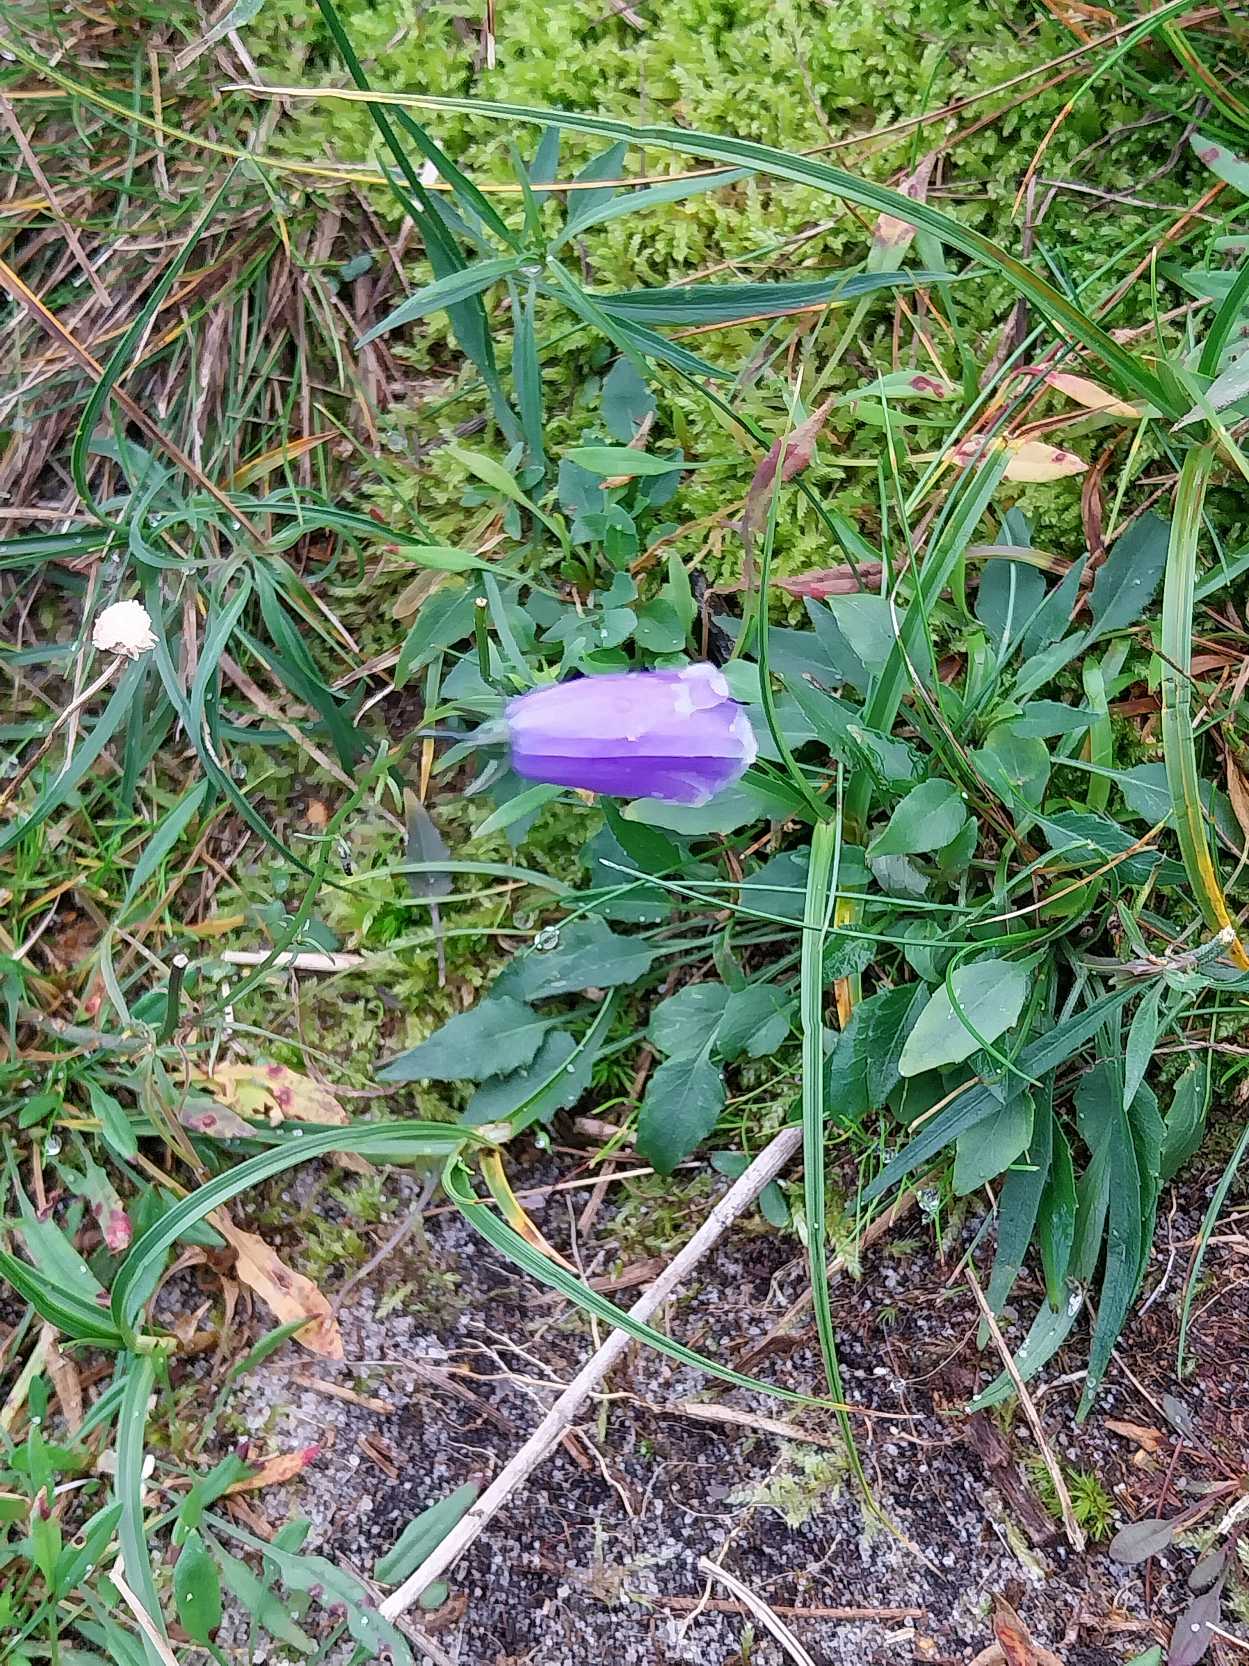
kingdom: Plantae
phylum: Tracheophyta
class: Magnoliopsida
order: Asterales
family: Campanulaceae
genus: Campanula
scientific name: Campanula rotundifolia
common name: Liden klokke
